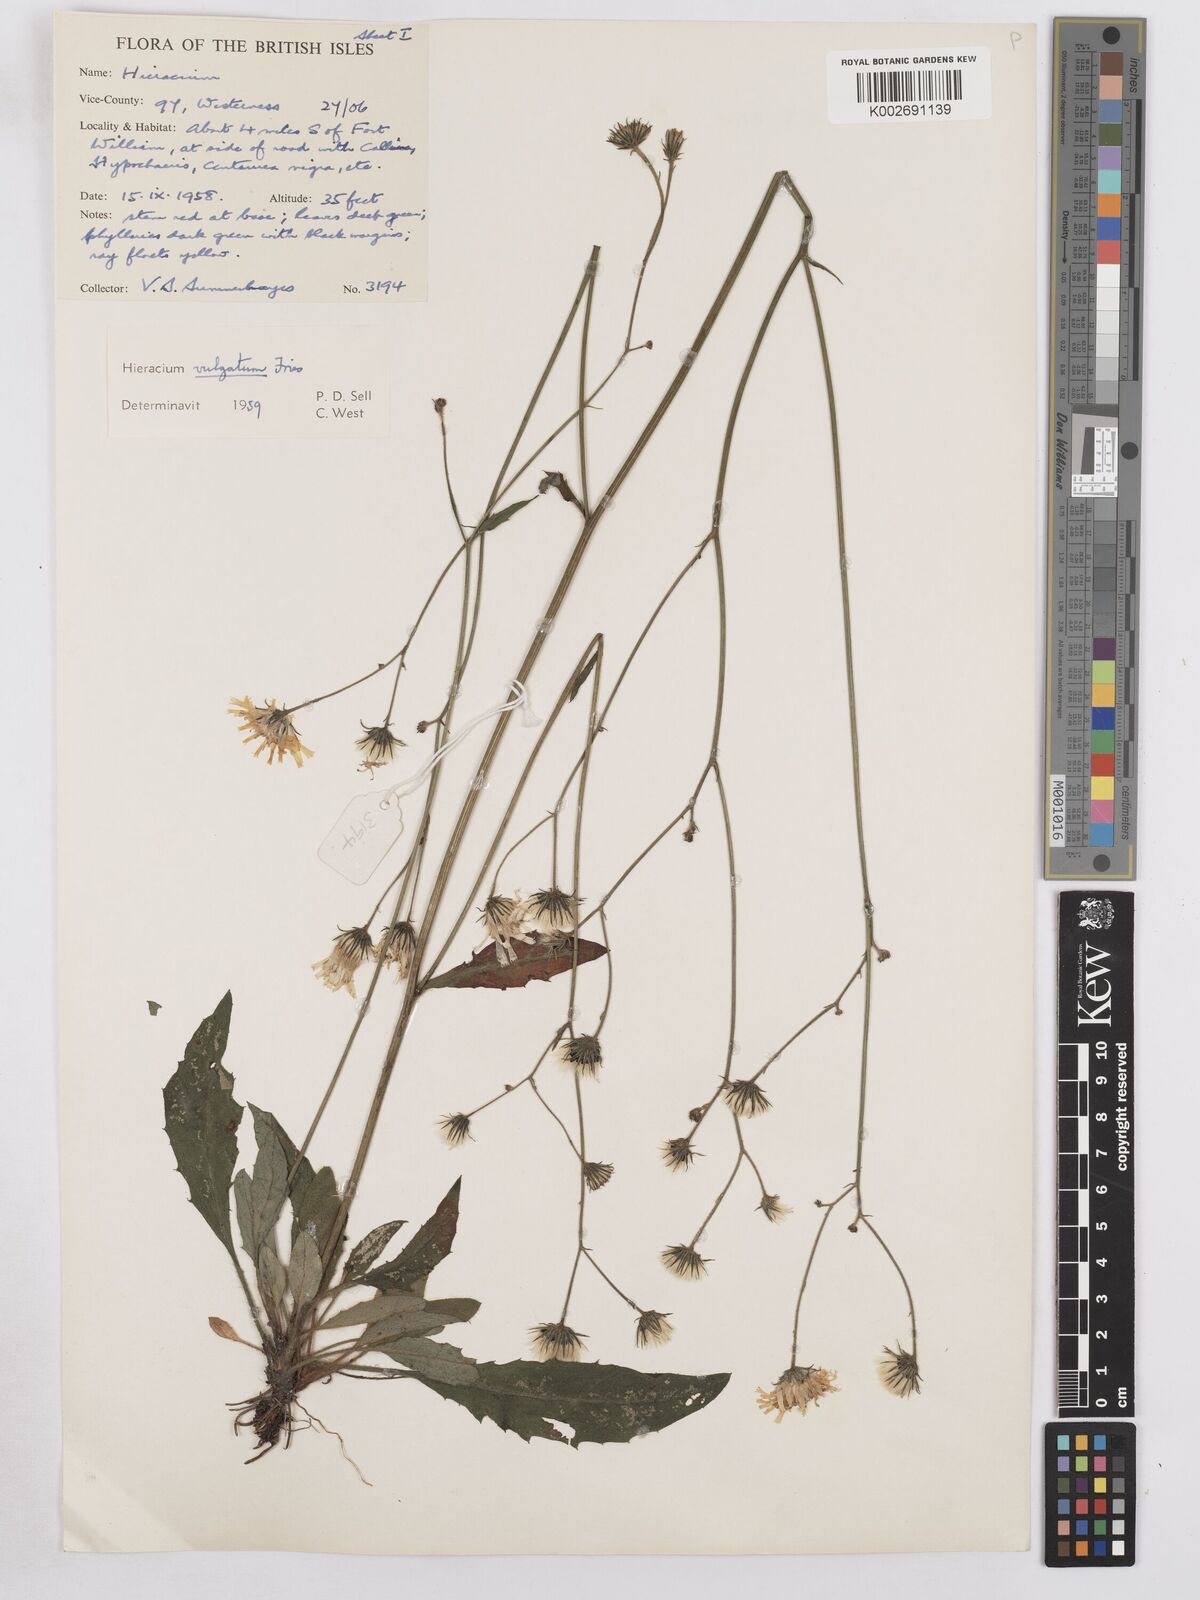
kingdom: Plantae
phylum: Tracheophyta
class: Magnoliopsida
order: Asterales
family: Asteraceae
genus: Hieracium
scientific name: Hieracium lachenalii
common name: Common hawkweed
